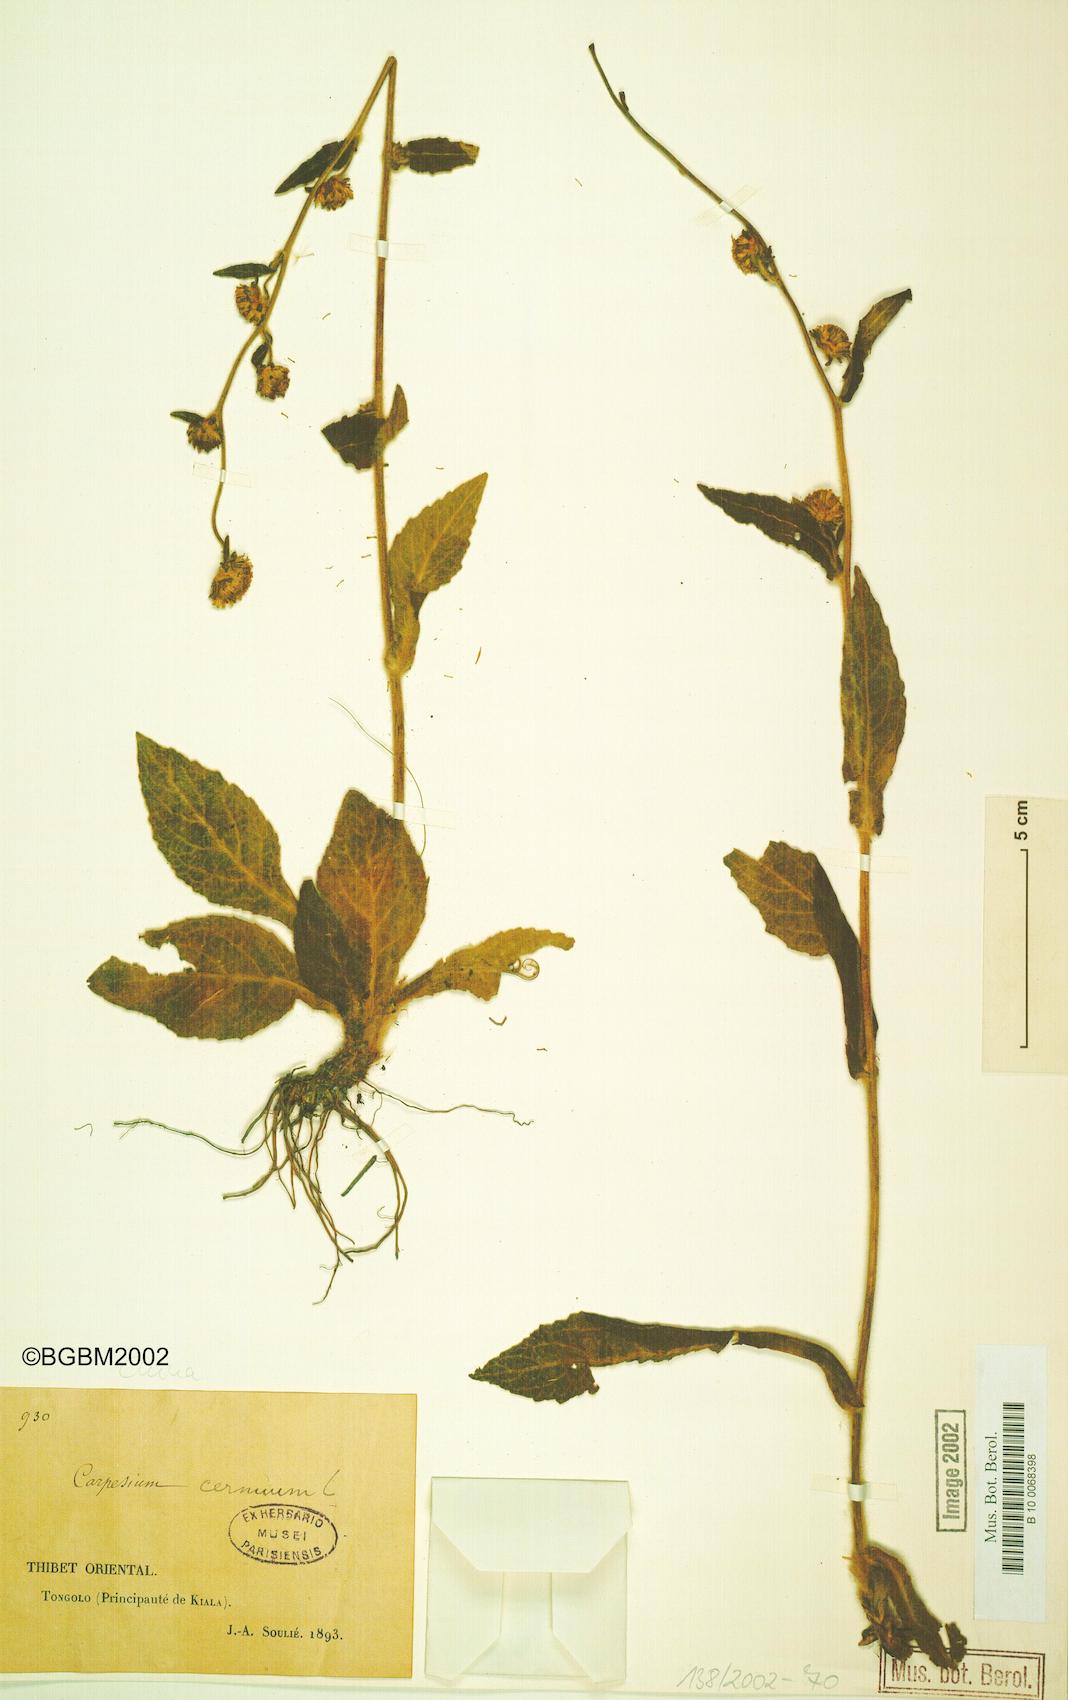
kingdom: Plantae
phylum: Tracheophyta
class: Magnoliopsida
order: Asterales
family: Asteraceae
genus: Carpesium
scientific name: Carpesium lipskyi
